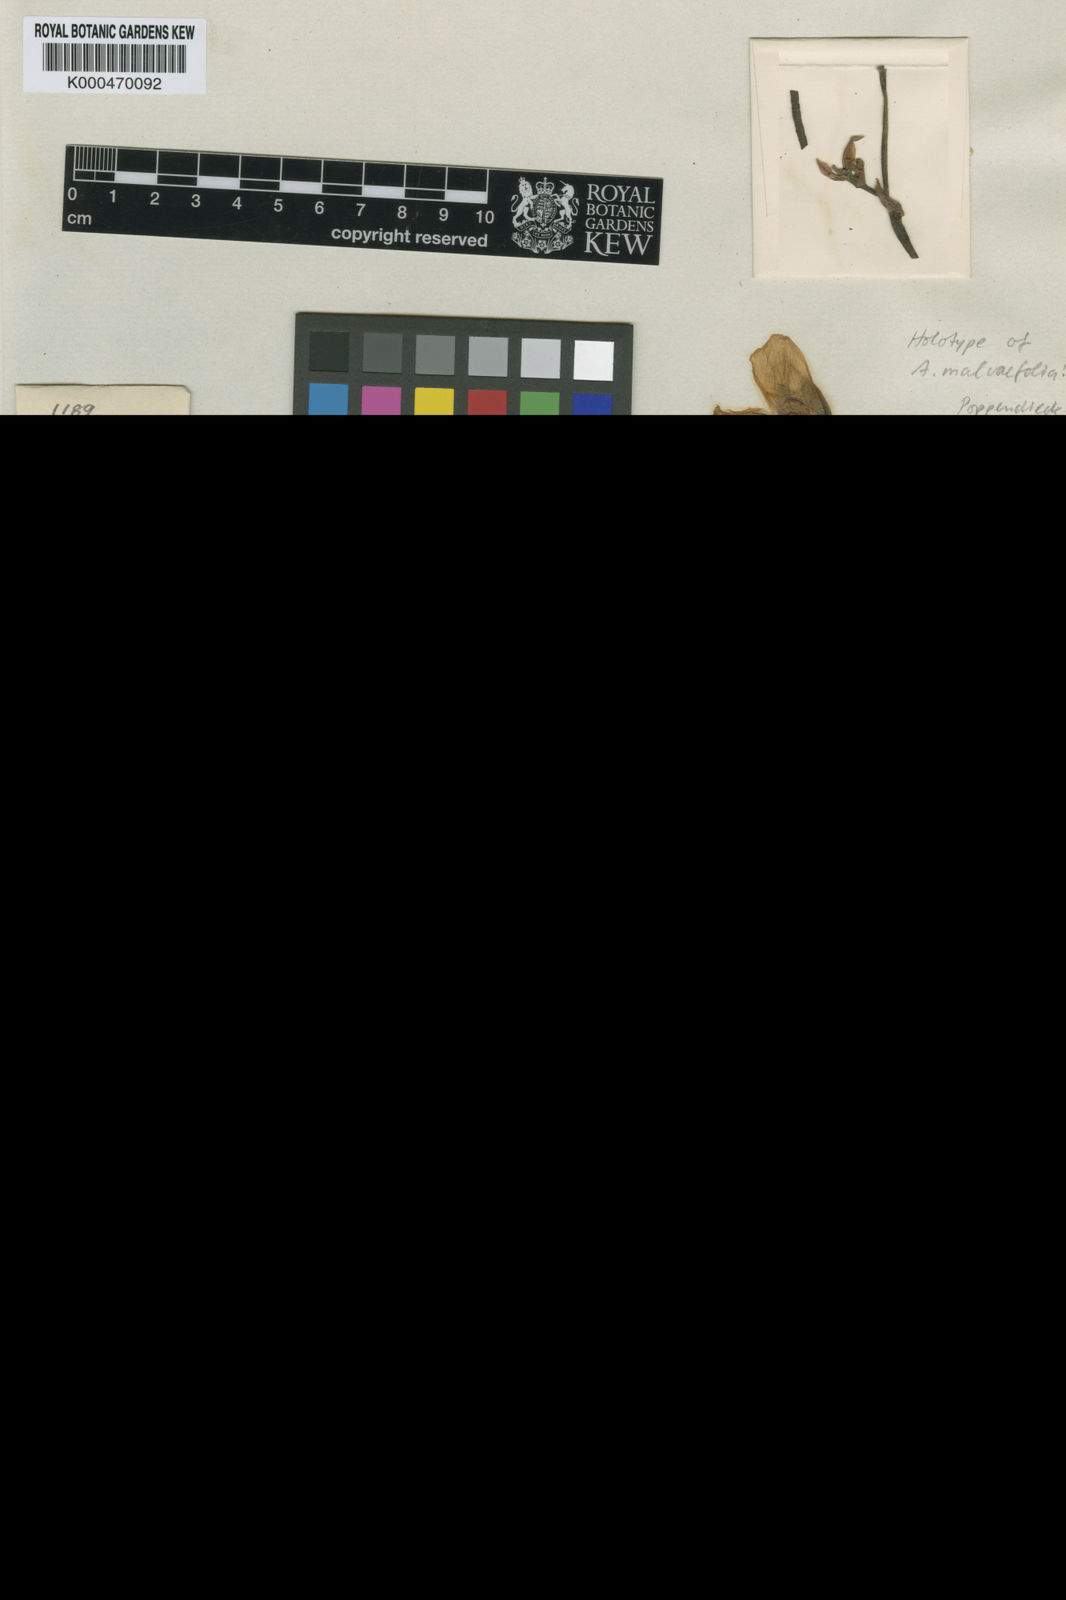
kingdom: Plantae
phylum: Tracheophyta
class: Magnoliopsida
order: Malvales
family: Cochlospermaceae
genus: Cochlospermum
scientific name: Cochlospermum malvifolium
